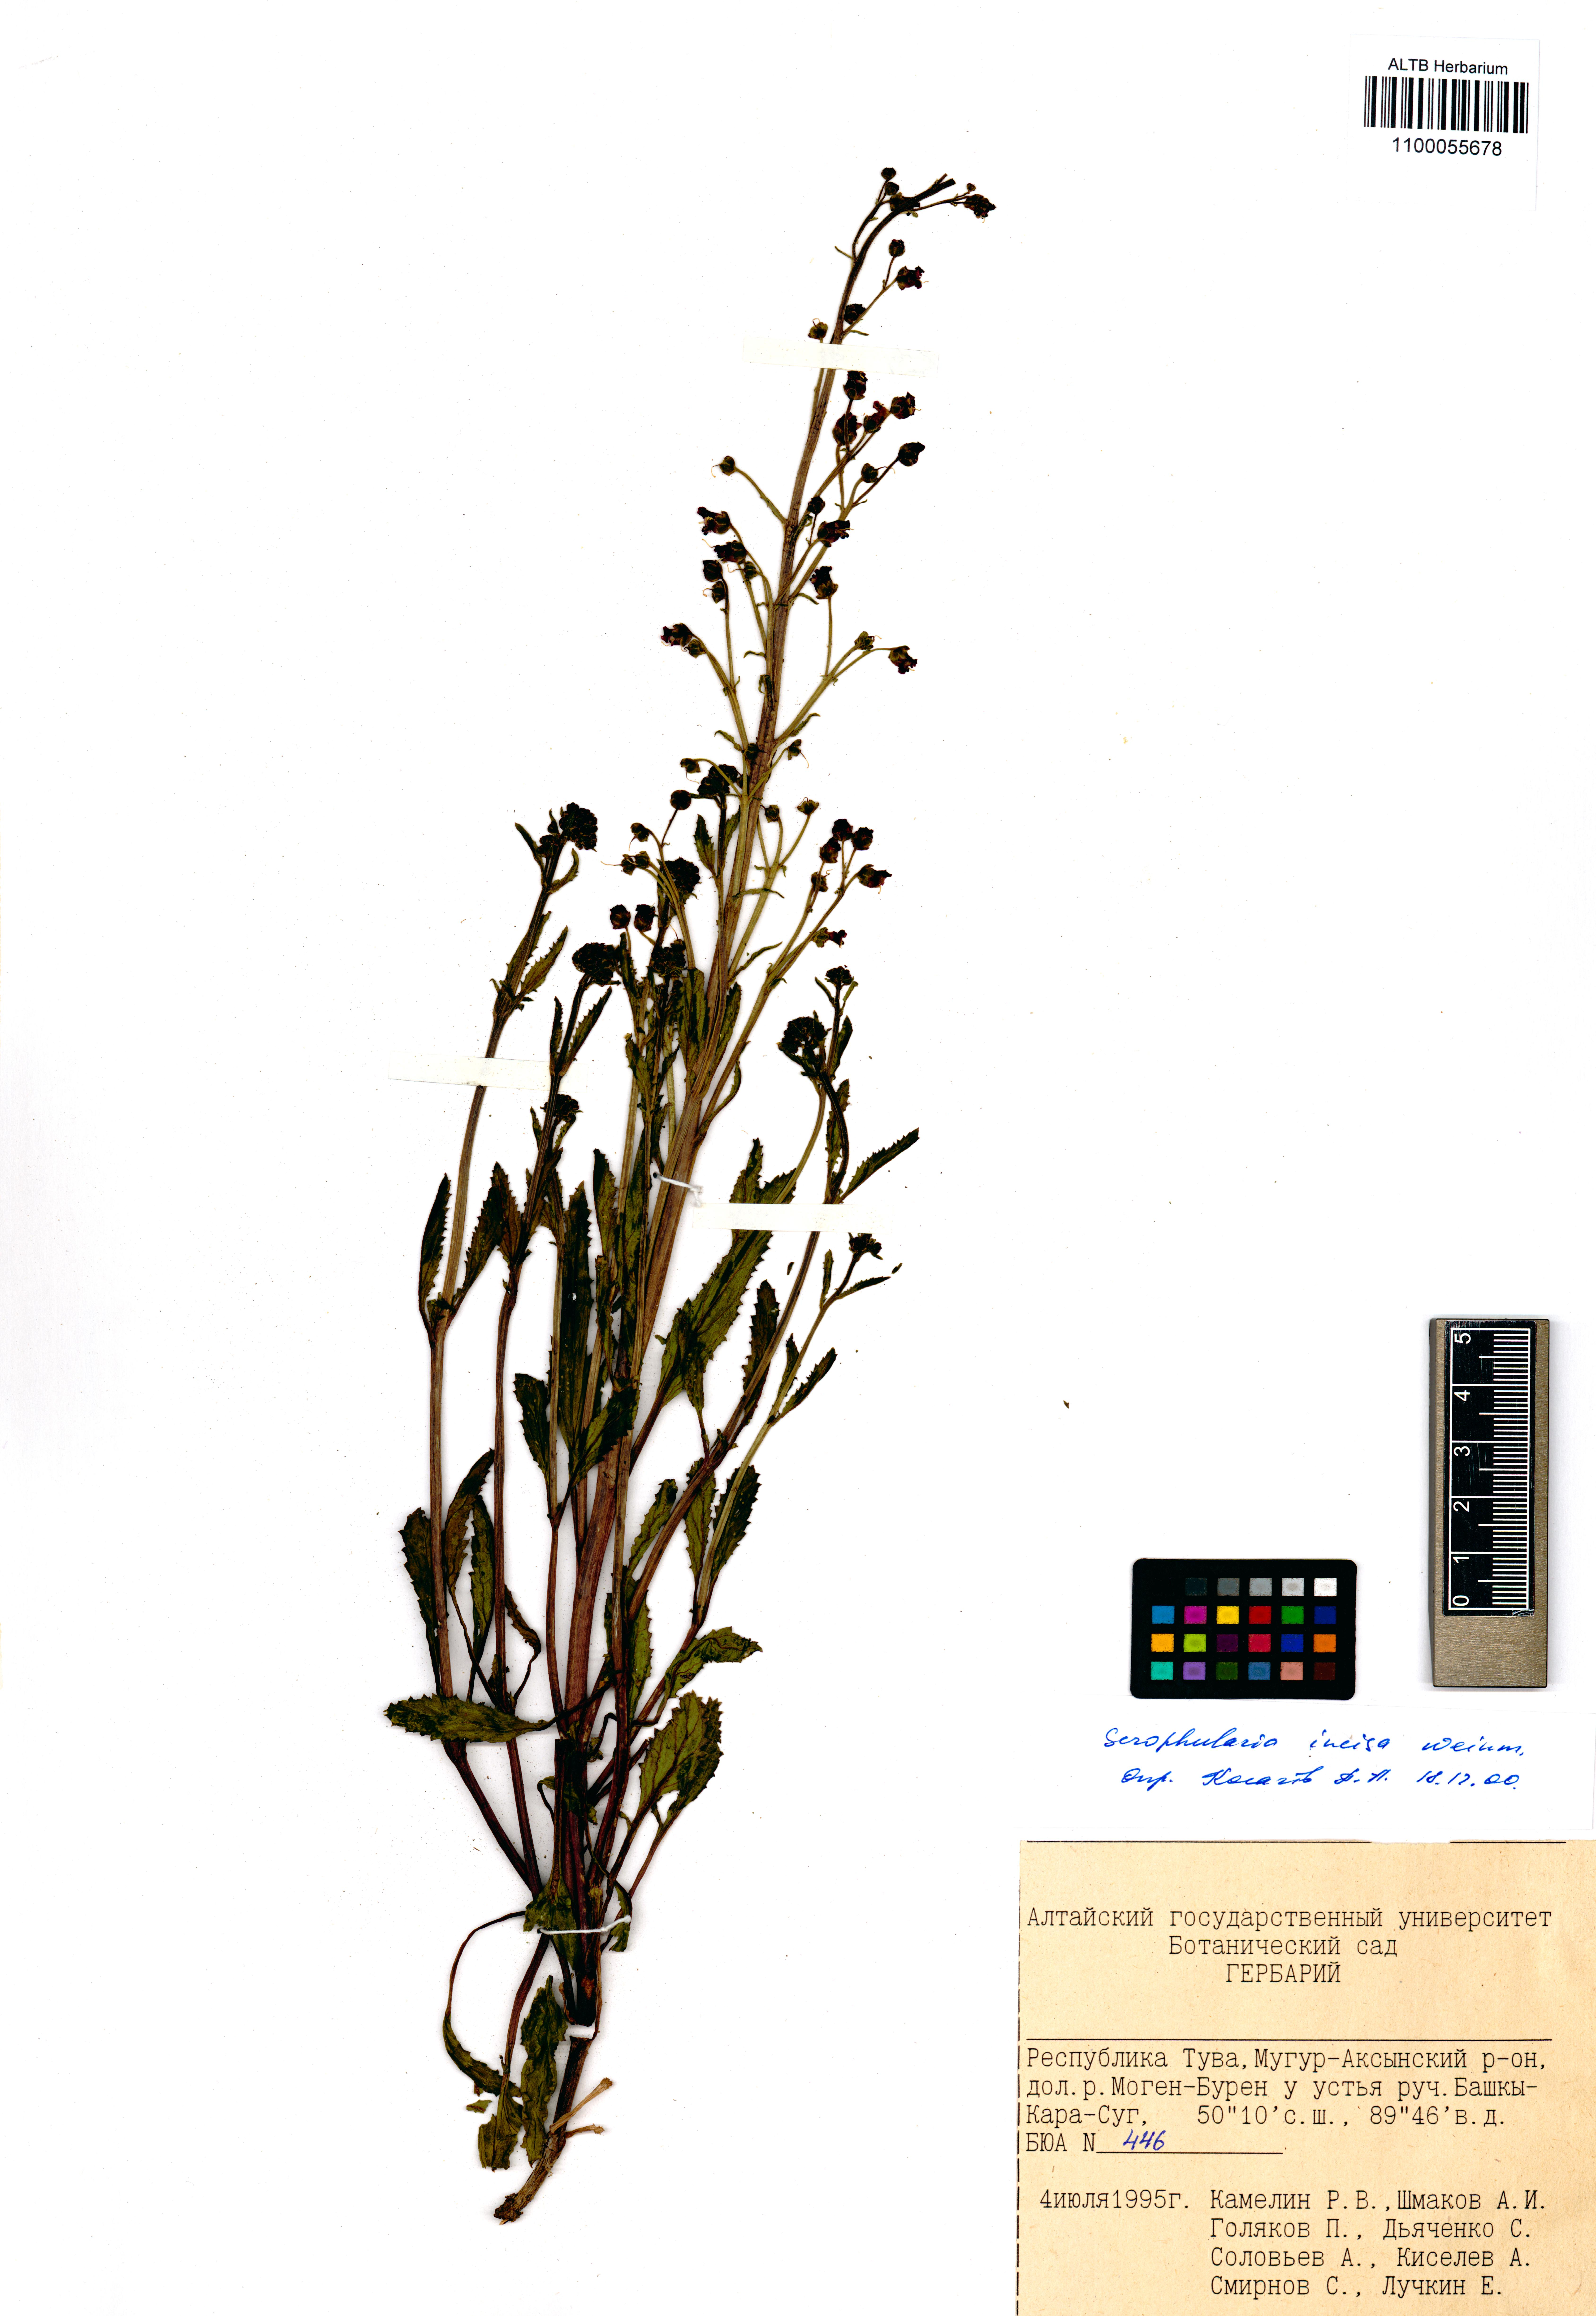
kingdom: Plantae
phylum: Tracheophyta
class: Magnoliopsida
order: Lamiales
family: Scrophulariaceae
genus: Scrophularia
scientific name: Scrophularia incisa
